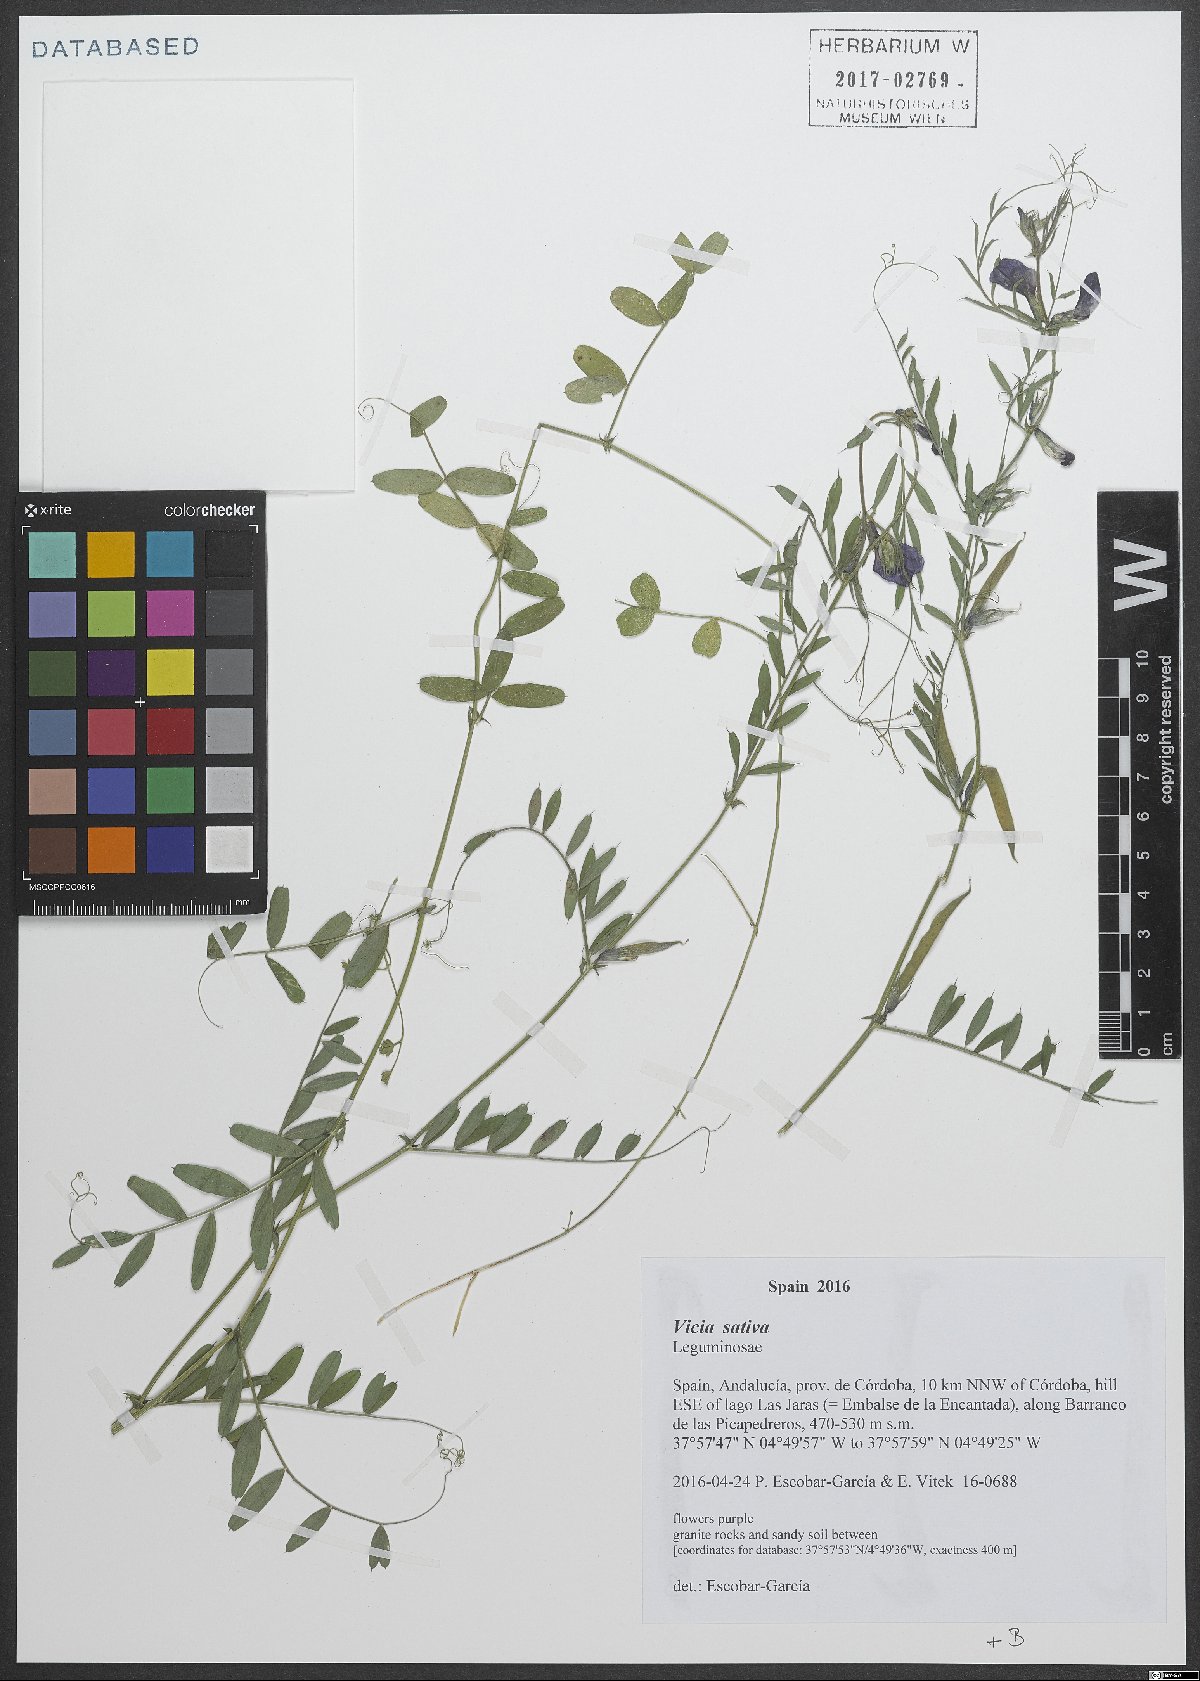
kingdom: Plantae
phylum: Tracheophyta
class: Magnoliopsida
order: Fabales
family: Fabaceae
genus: Vicia
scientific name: Vicia sativa
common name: Garden vetch
